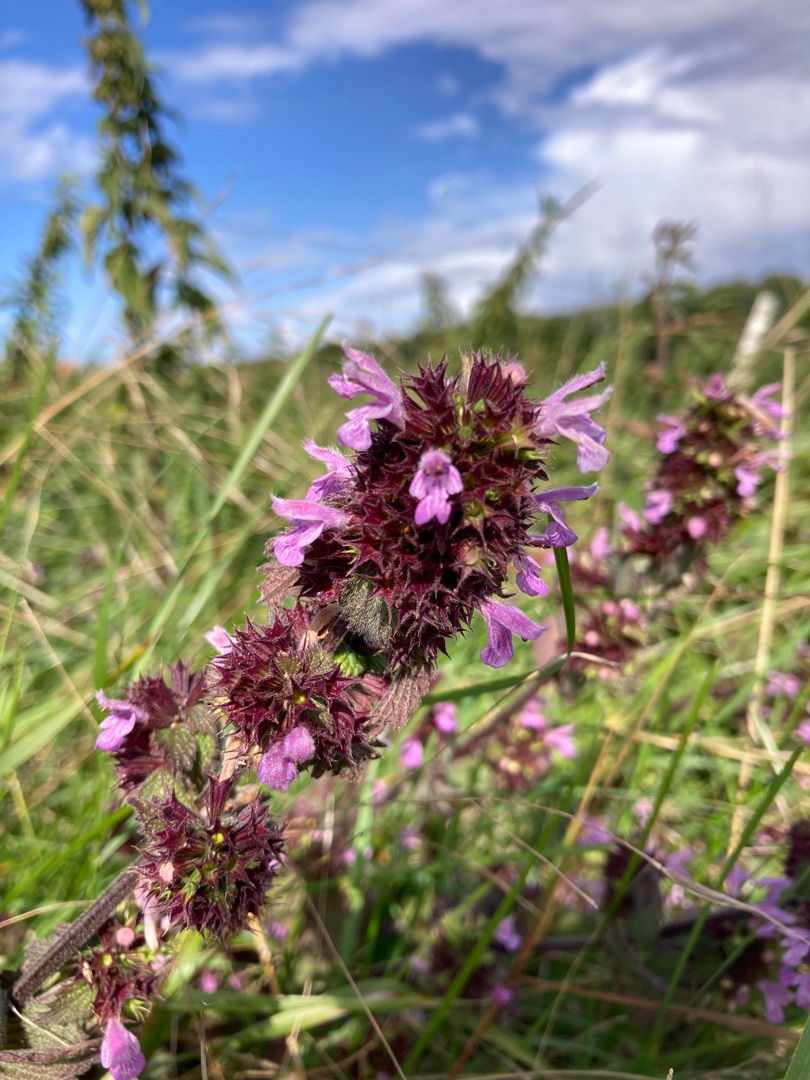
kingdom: Plantae
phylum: Tracheophyta
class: Magnoliopsida
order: Lamiales
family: Lamiaceae
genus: Ballota
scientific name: Ballota nigra
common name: Tandbæger
